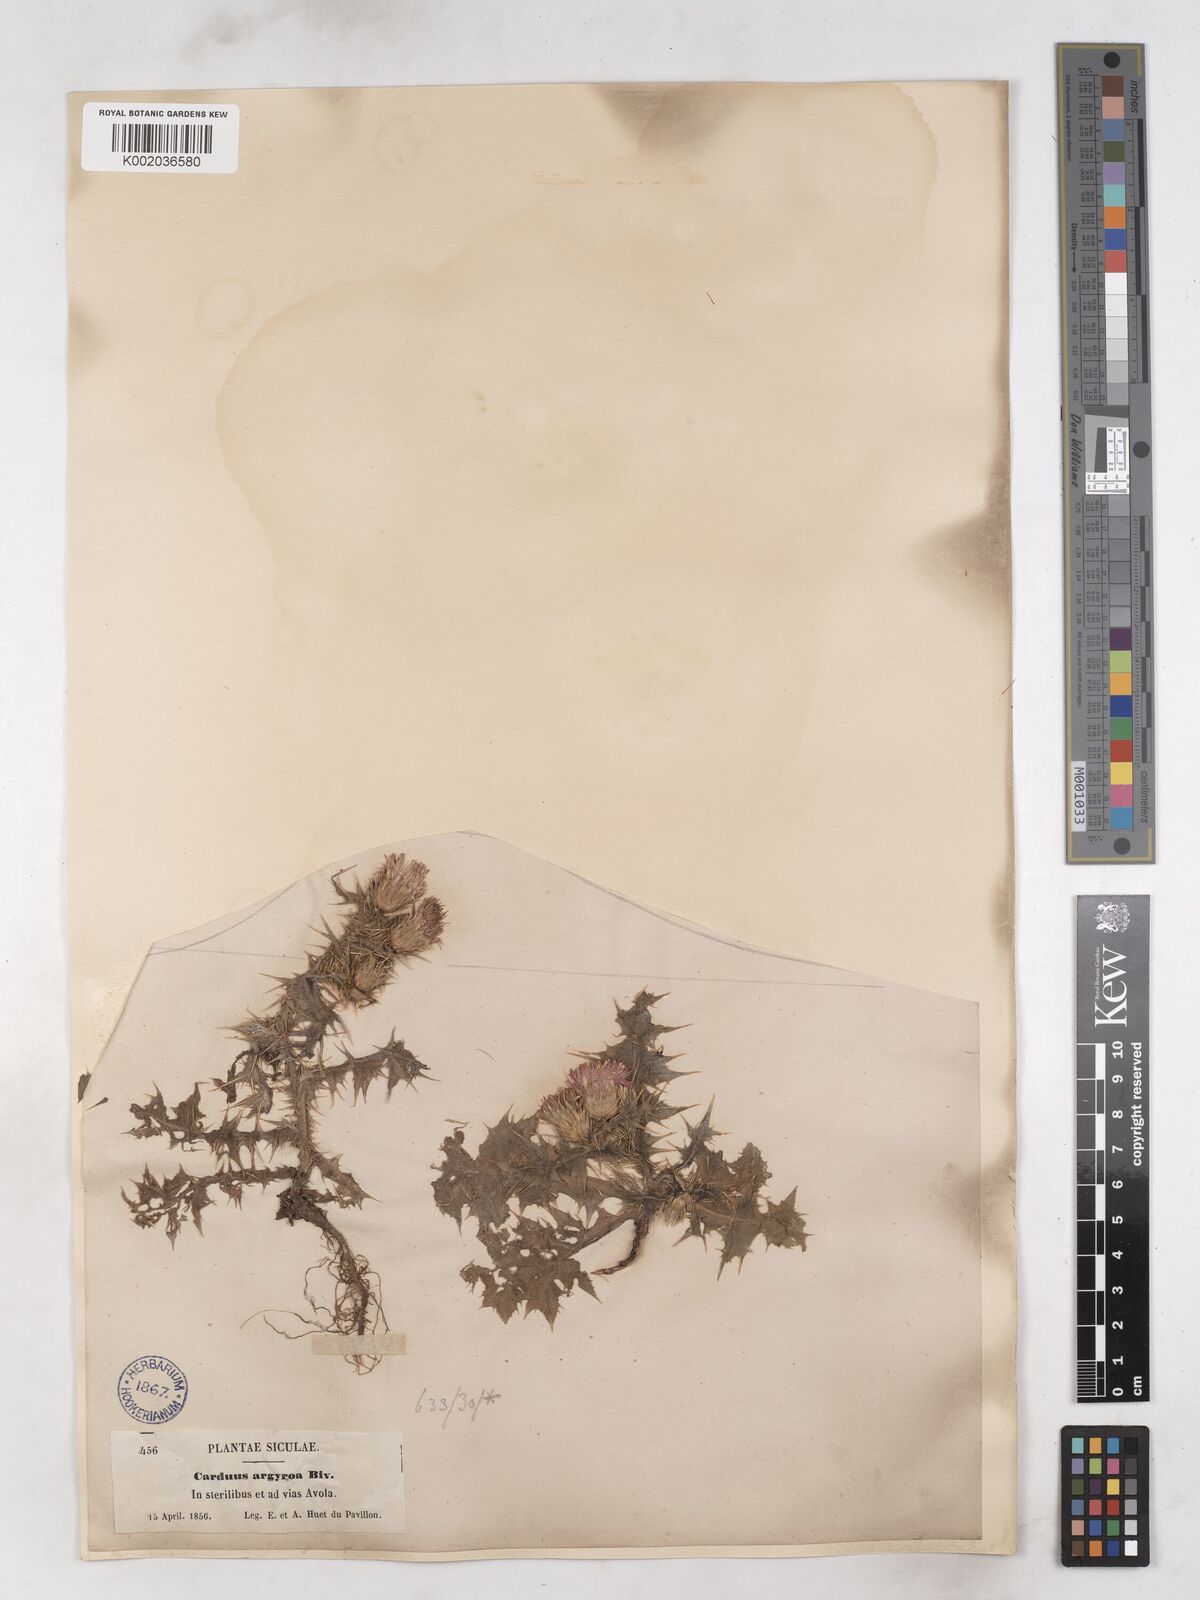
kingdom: Plantae
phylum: Tracheophyta
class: Magnoliopsida
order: Asterales
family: Asteraceae
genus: Carduus
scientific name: Carduus argyroa
